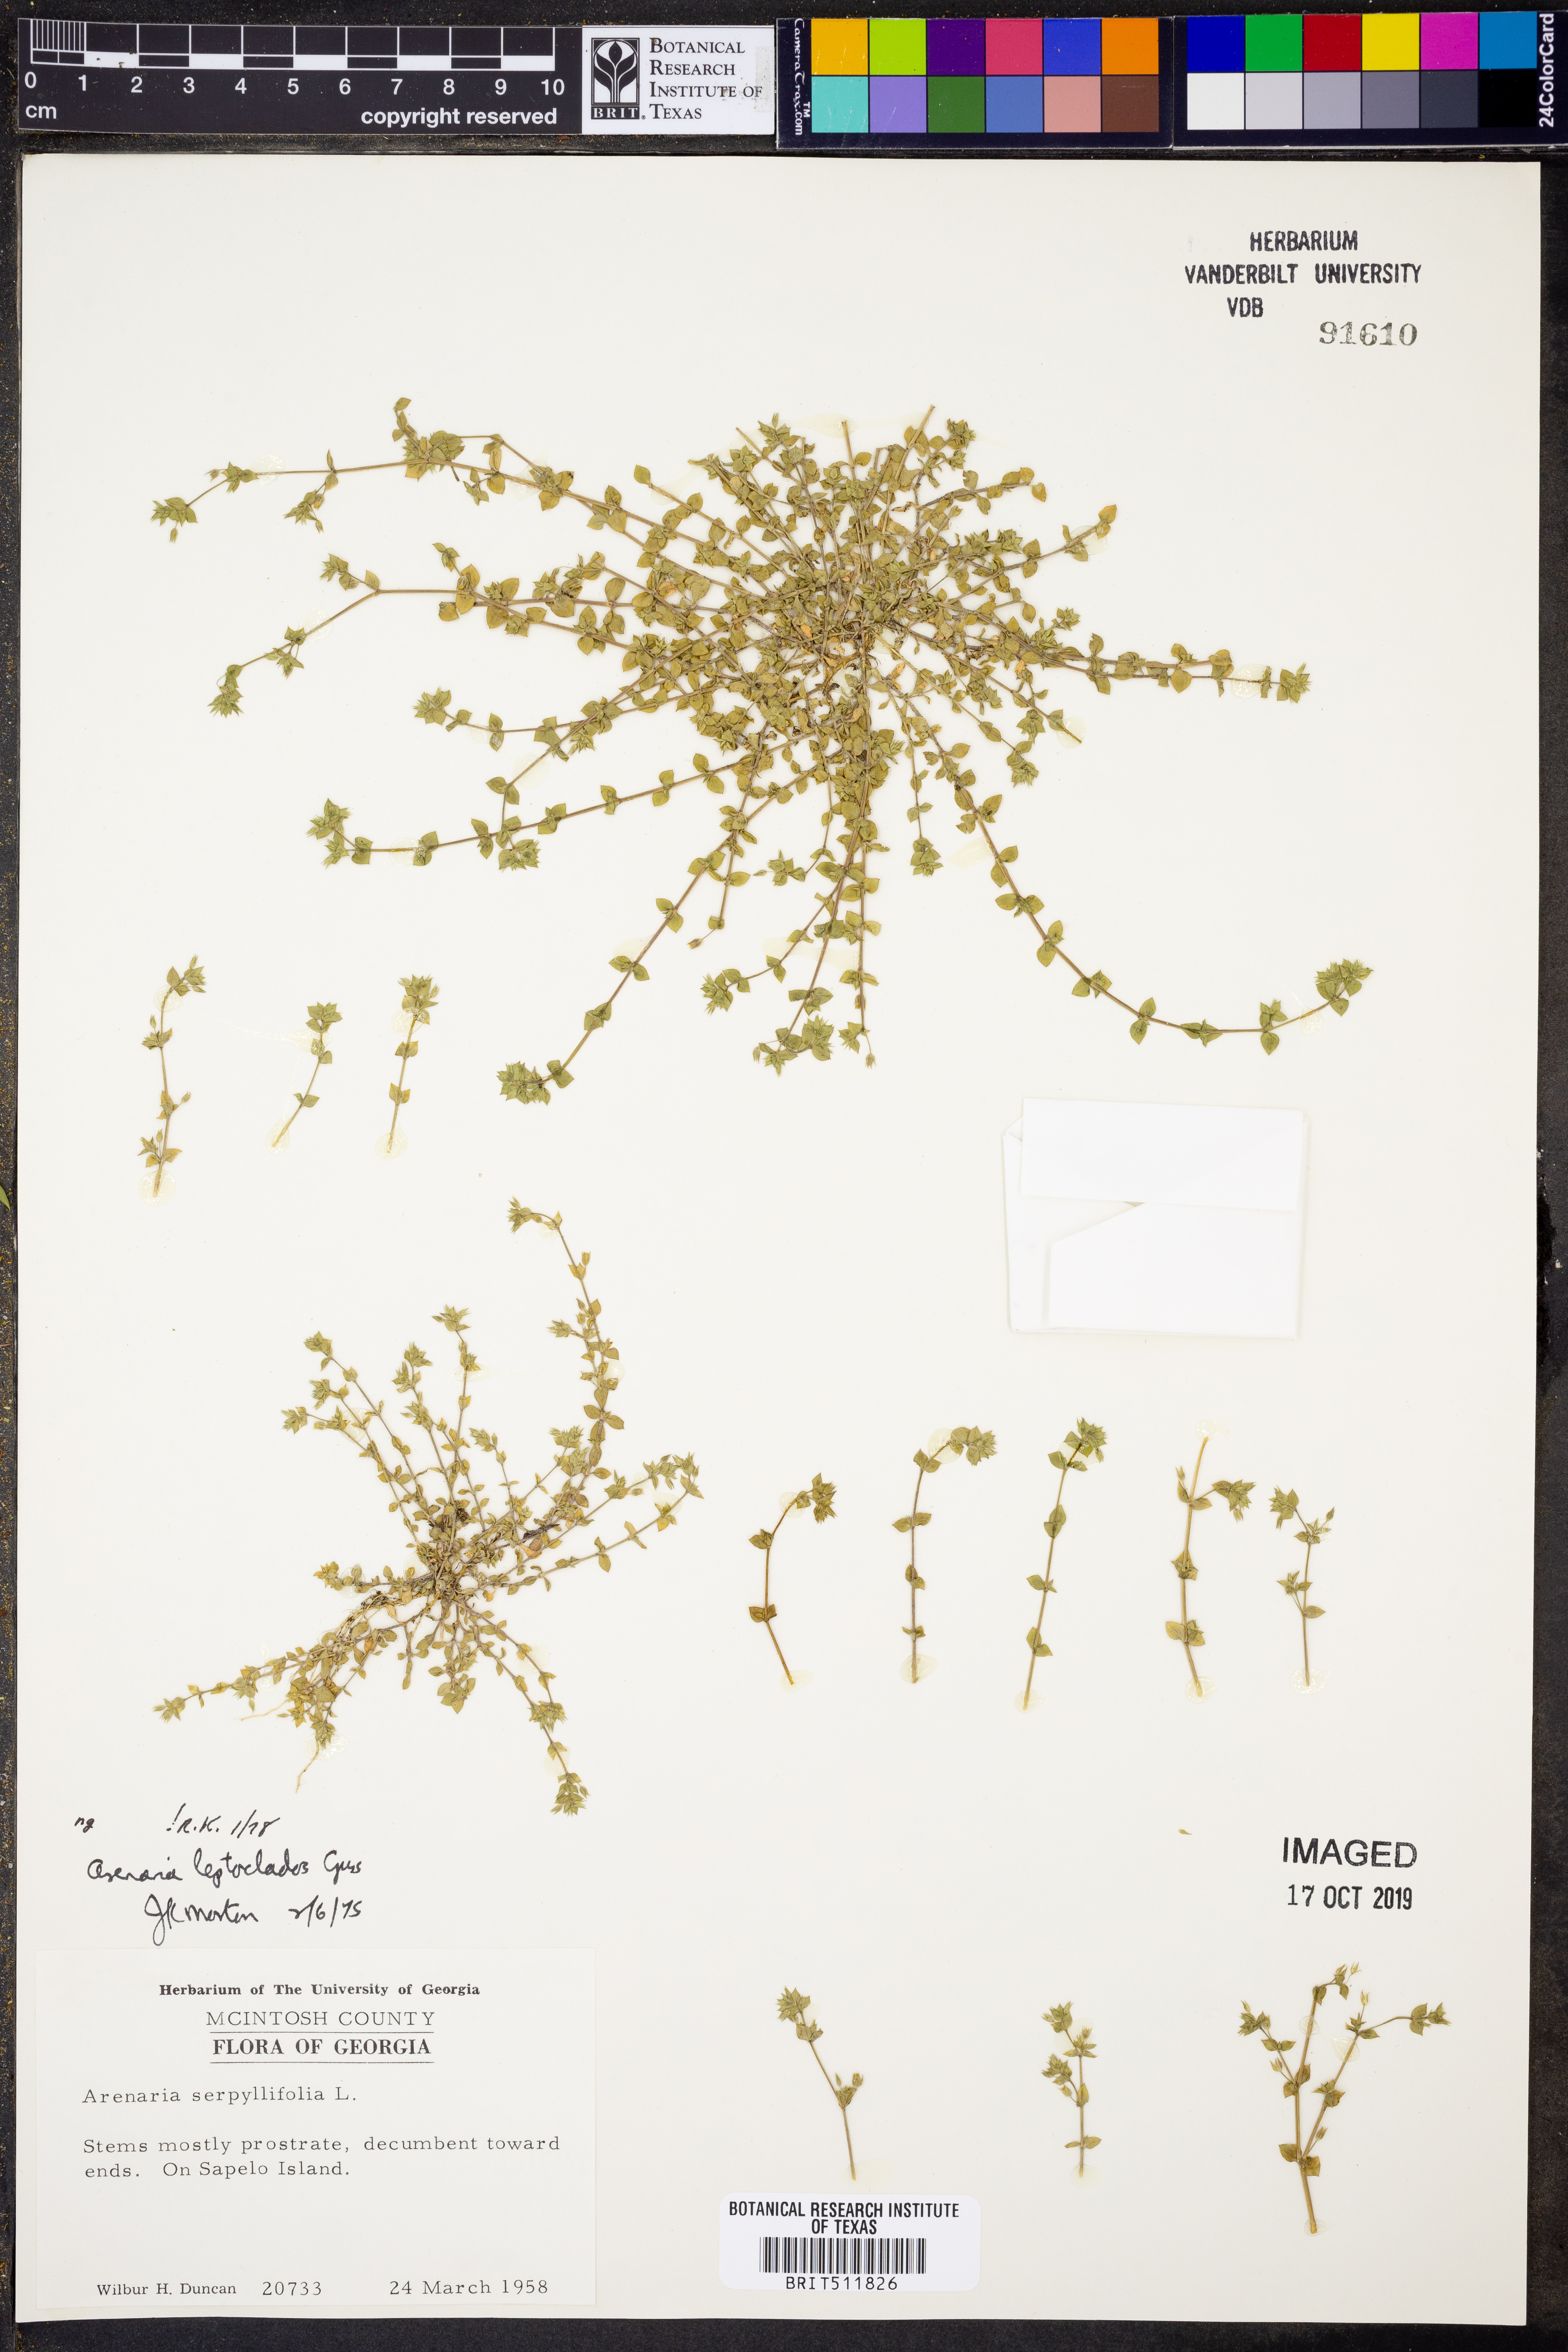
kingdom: Plantae
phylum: Tracheophyta
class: Magnoliopsida
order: Caryophyllales
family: Caryophyllaceae
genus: Arenaria
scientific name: Arenaria leptoclados
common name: Thyme-leaved sandwort
